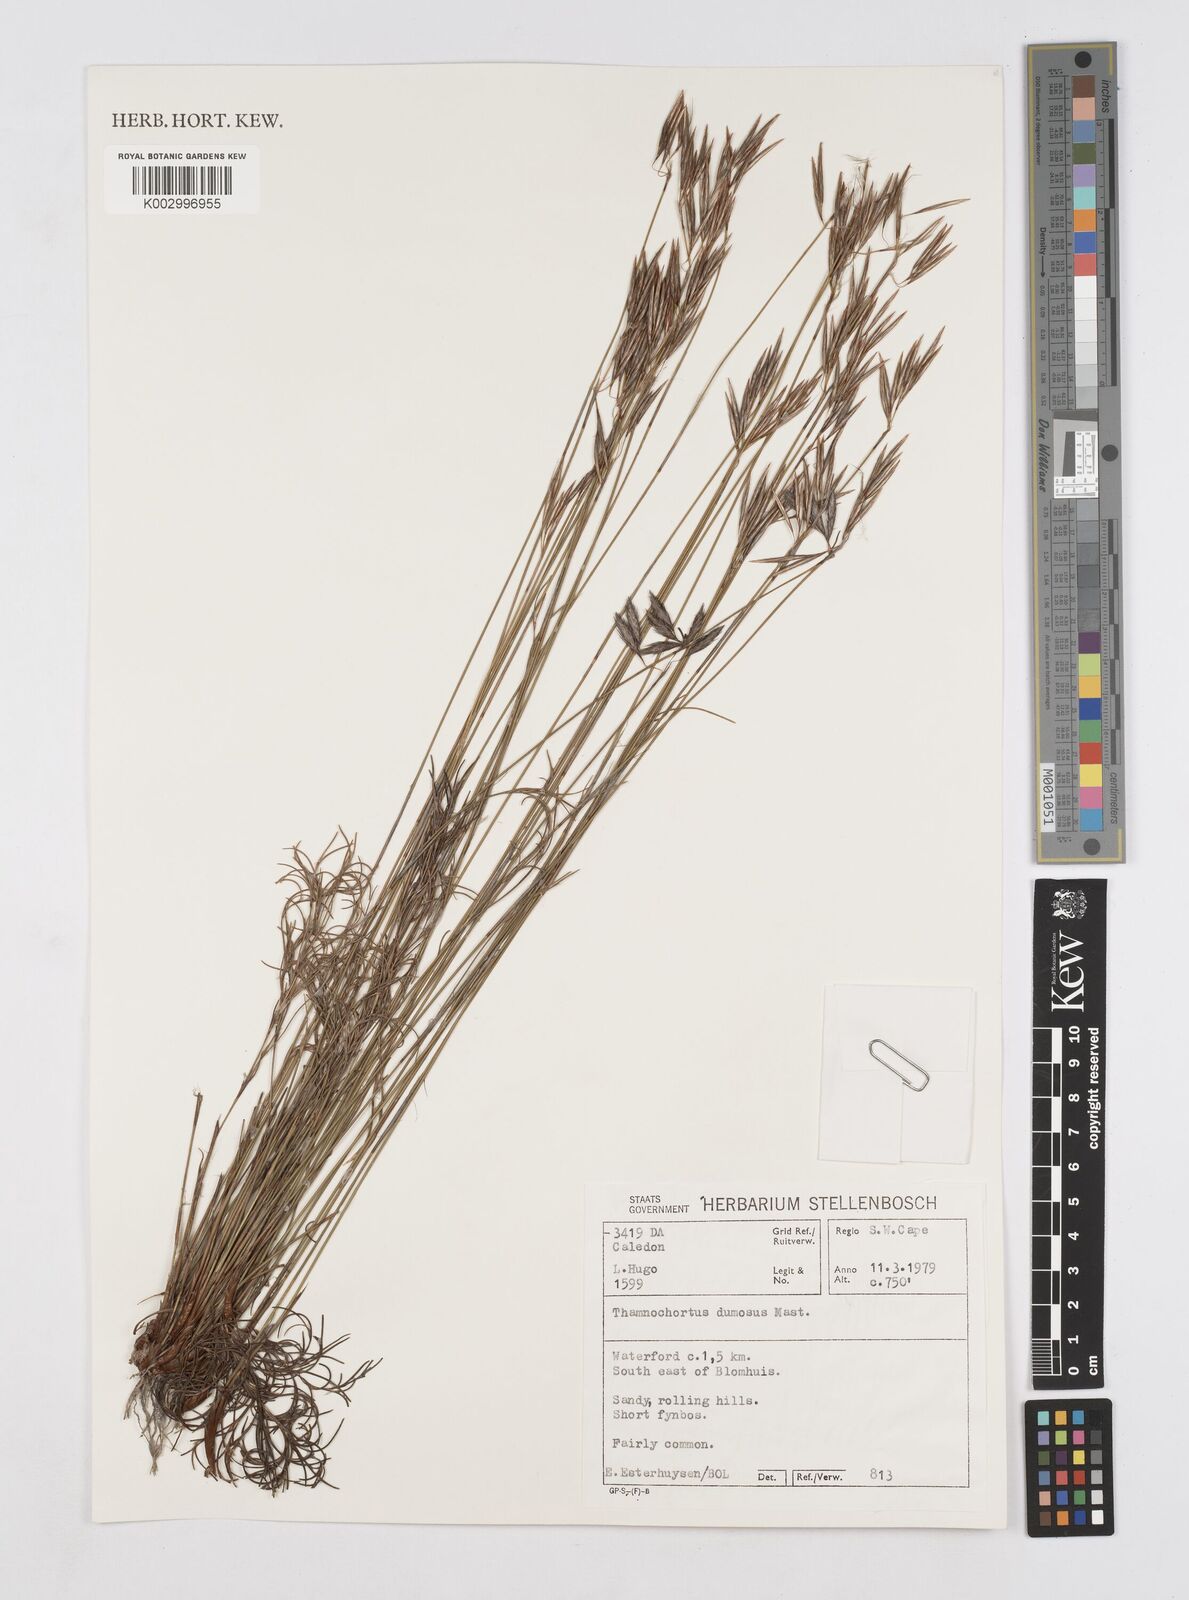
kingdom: Plantae
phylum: Tracheophyta
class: Liliopsida
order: Poales
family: Restionaceae
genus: Thamnochortus
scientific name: Thamnochortus dumosus
